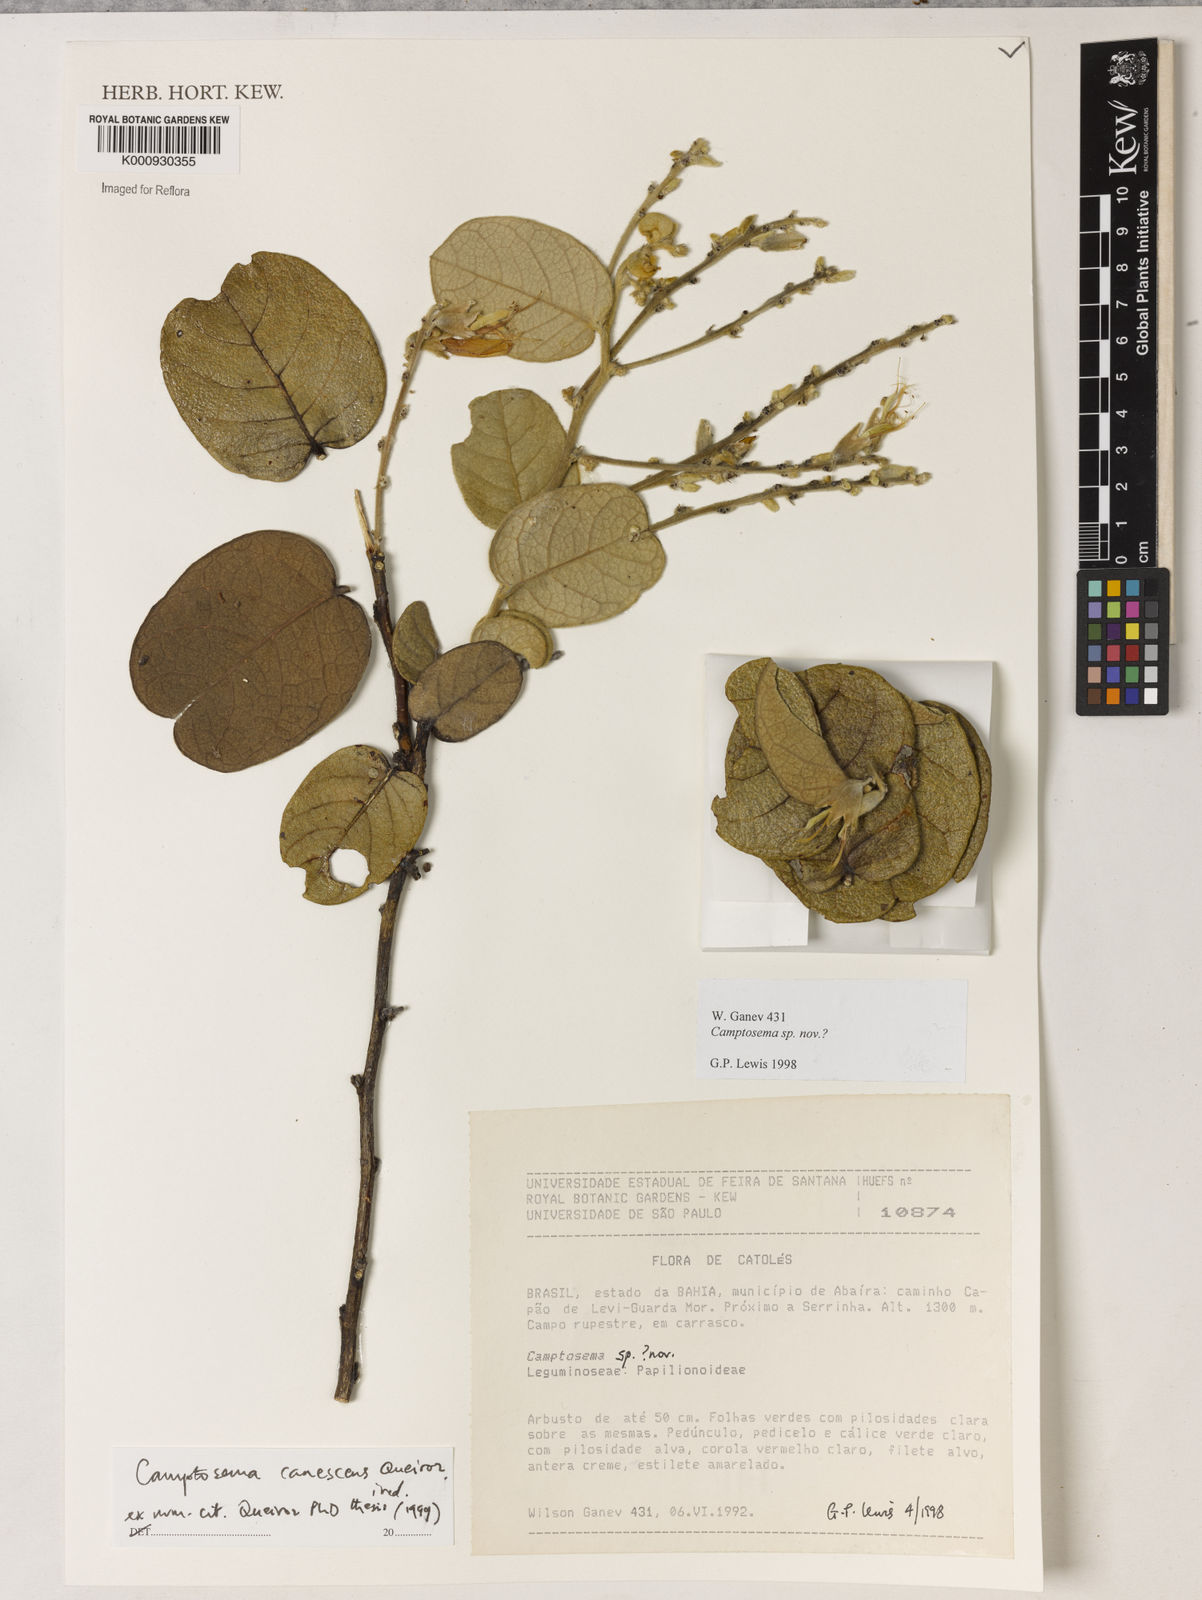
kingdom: Plantae
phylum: Tracheophyta
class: Magnoliopsida
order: Fabales
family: Fabaceae
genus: Camptosema
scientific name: Camptosema
